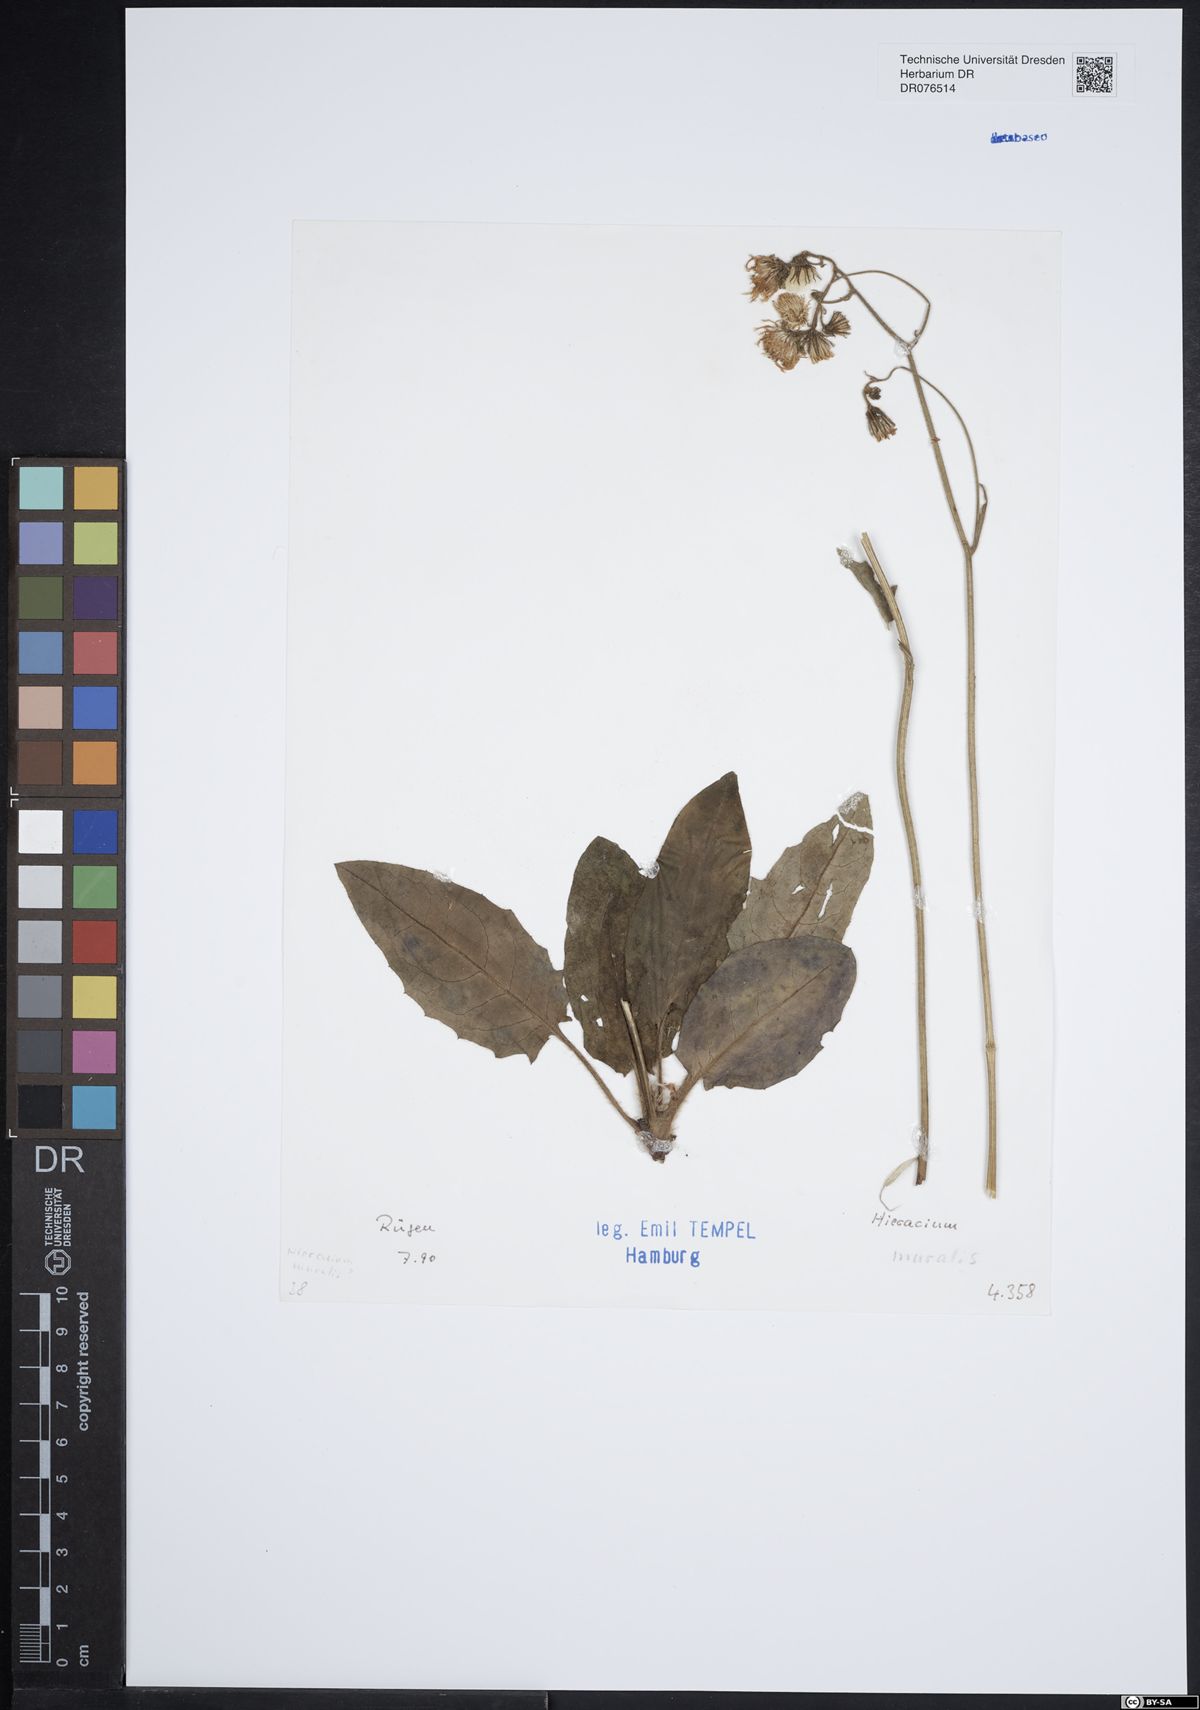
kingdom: Plantae
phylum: Tracheophyta
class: Magnoliopsida
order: Asterales
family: Asteraceae
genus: Hieracium
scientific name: Hieracium
